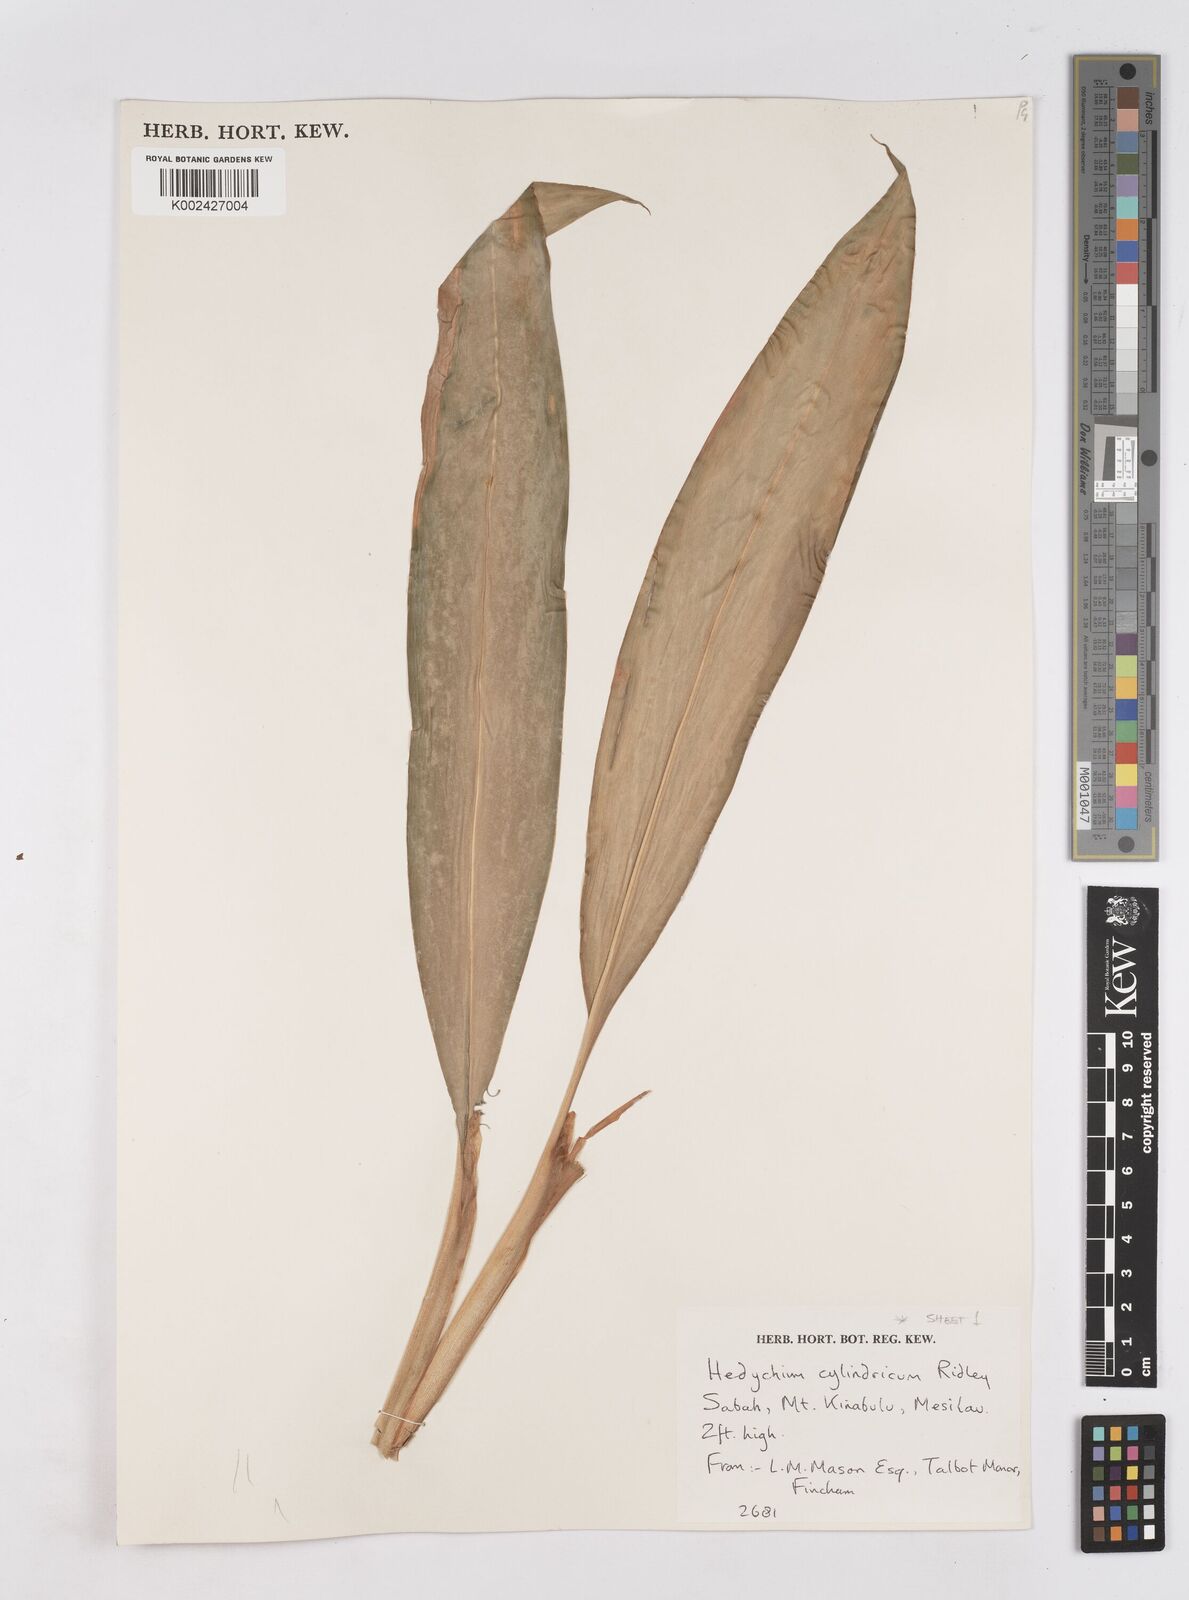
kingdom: Plantae
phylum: Tracheophyta
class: Liliopsida
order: Zingiberales
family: Zingiberaceae
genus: Hedychium
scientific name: Hedychium cylindricum
